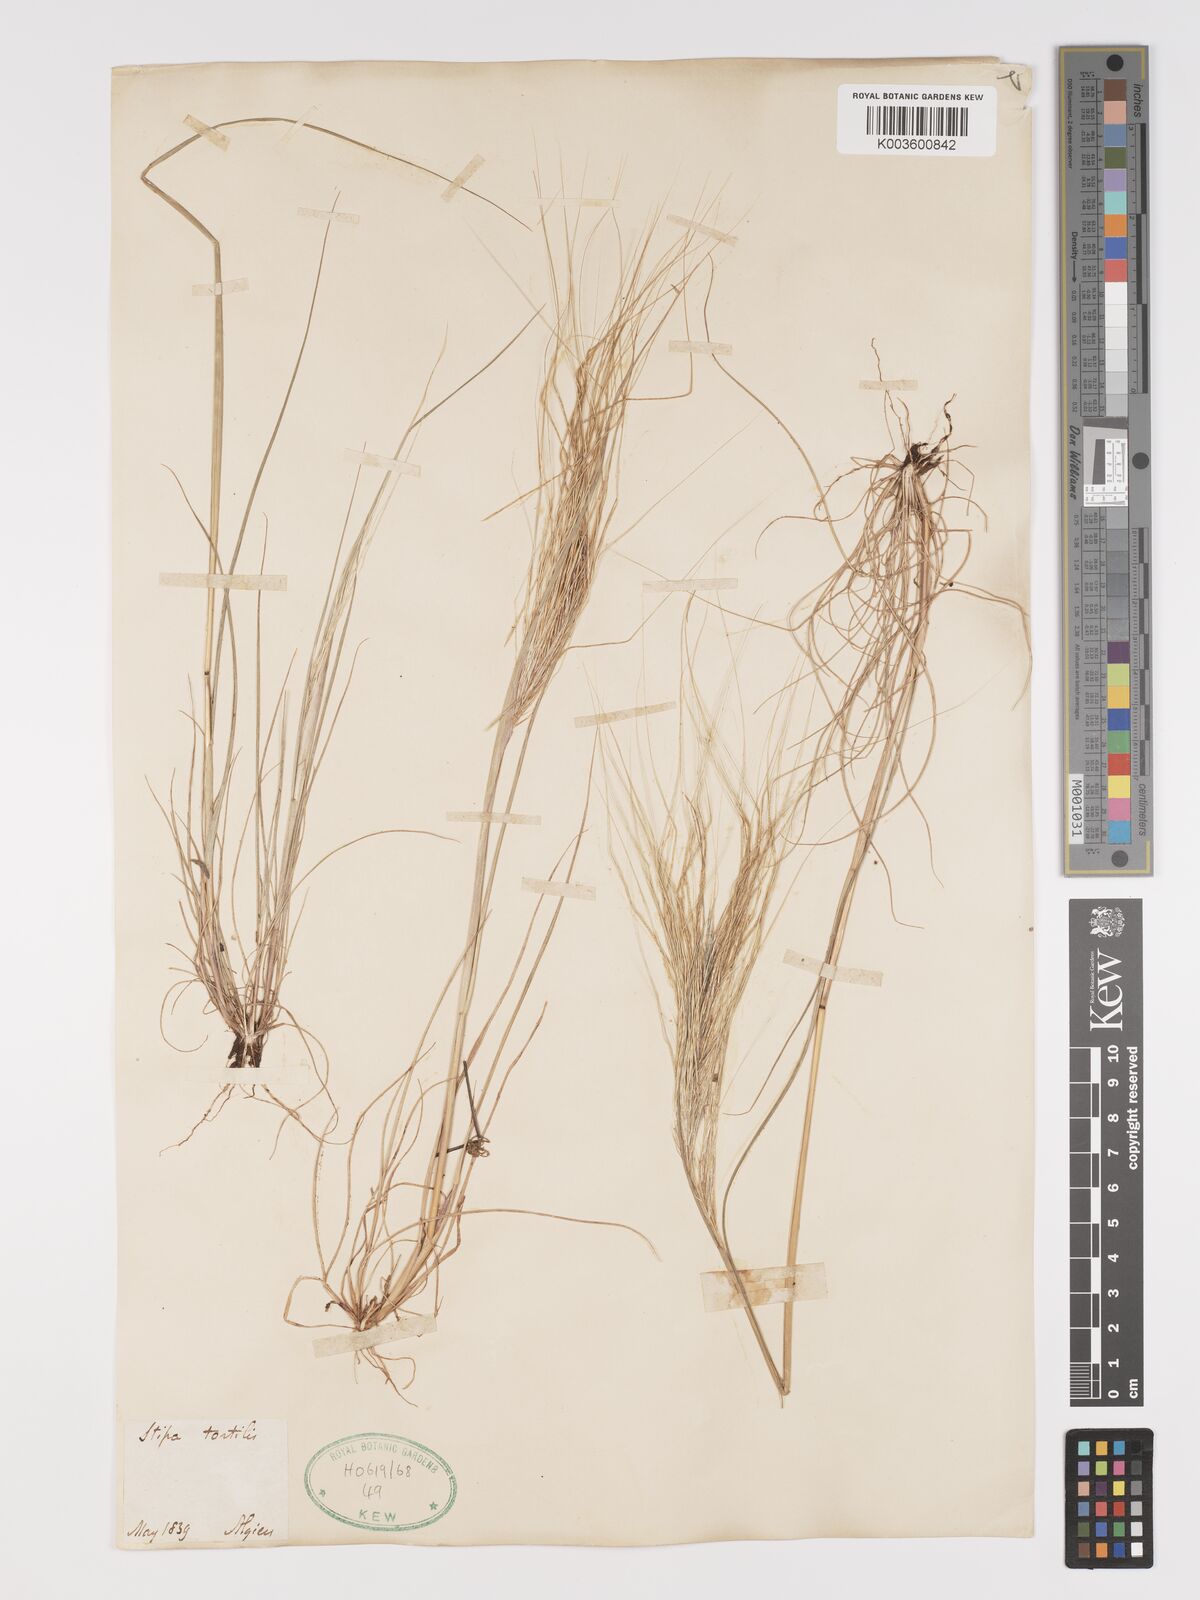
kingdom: Plantae
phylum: Tracheophyta
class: Liliopsida
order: Poales
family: Poaceae
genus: Stipellula
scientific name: Stipellula capensis
